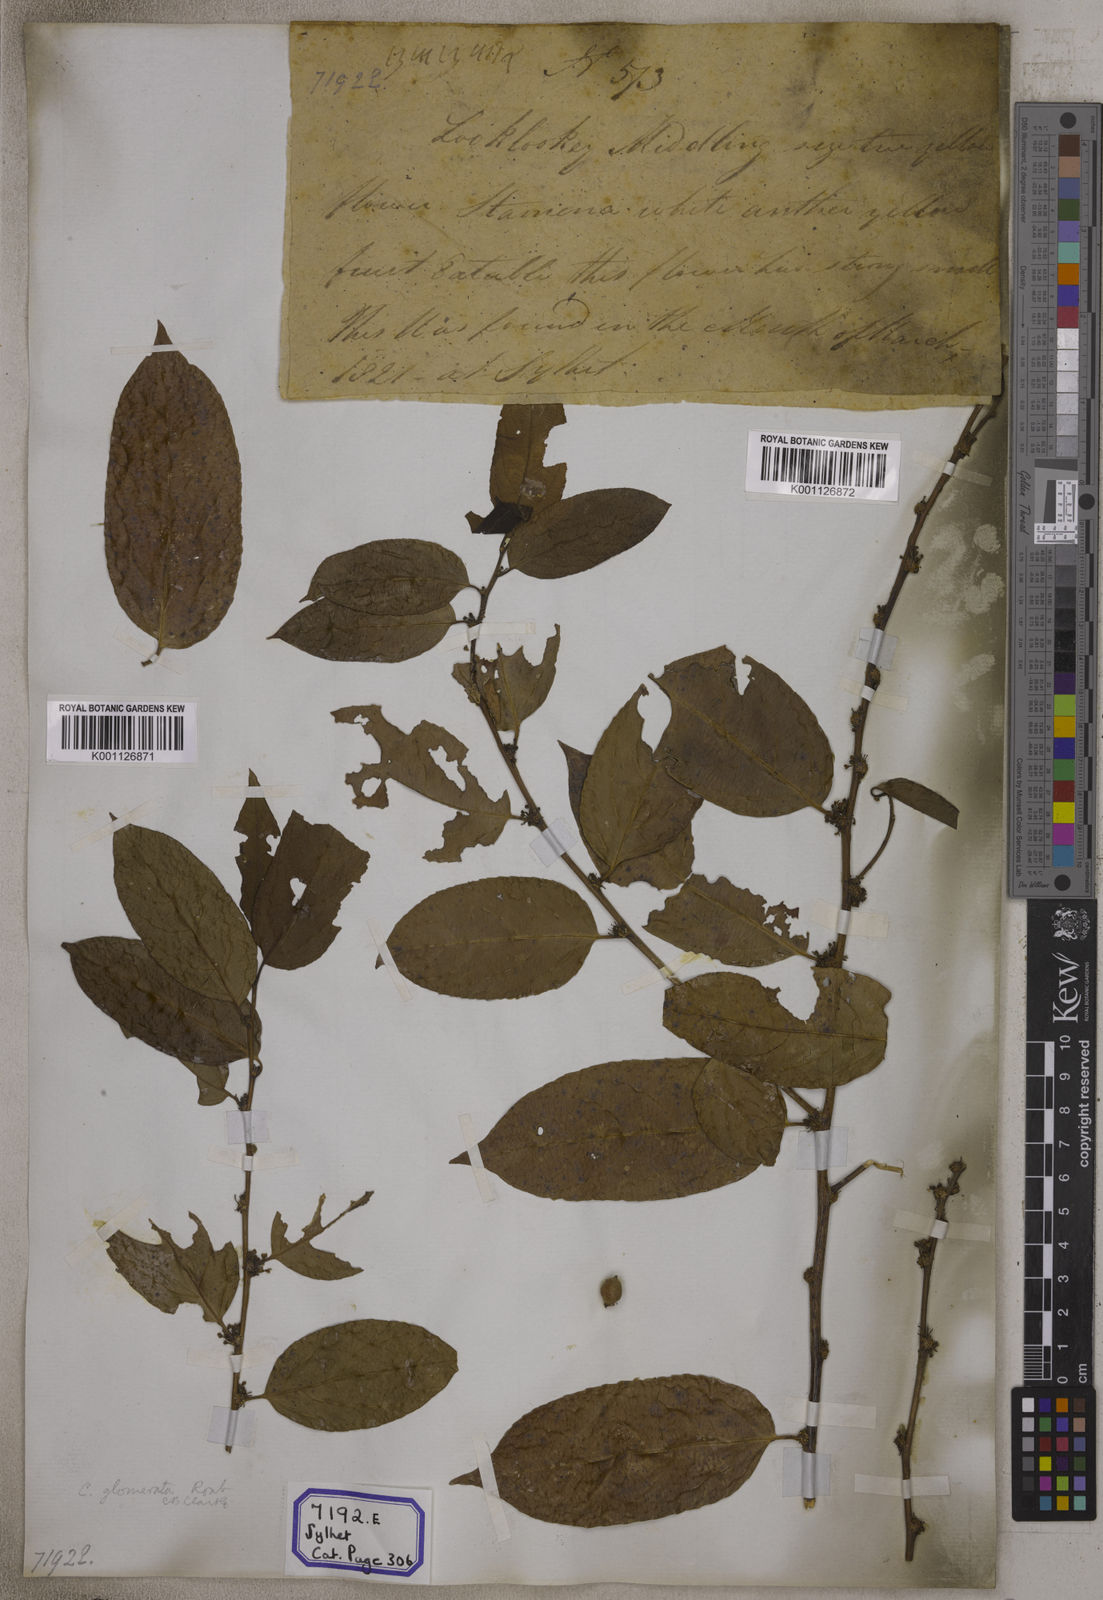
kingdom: Plantae
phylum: Tracheophyta
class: Magnoliopsida
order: Malpighiales
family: Salicaceae
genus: Casearia
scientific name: Casearia
